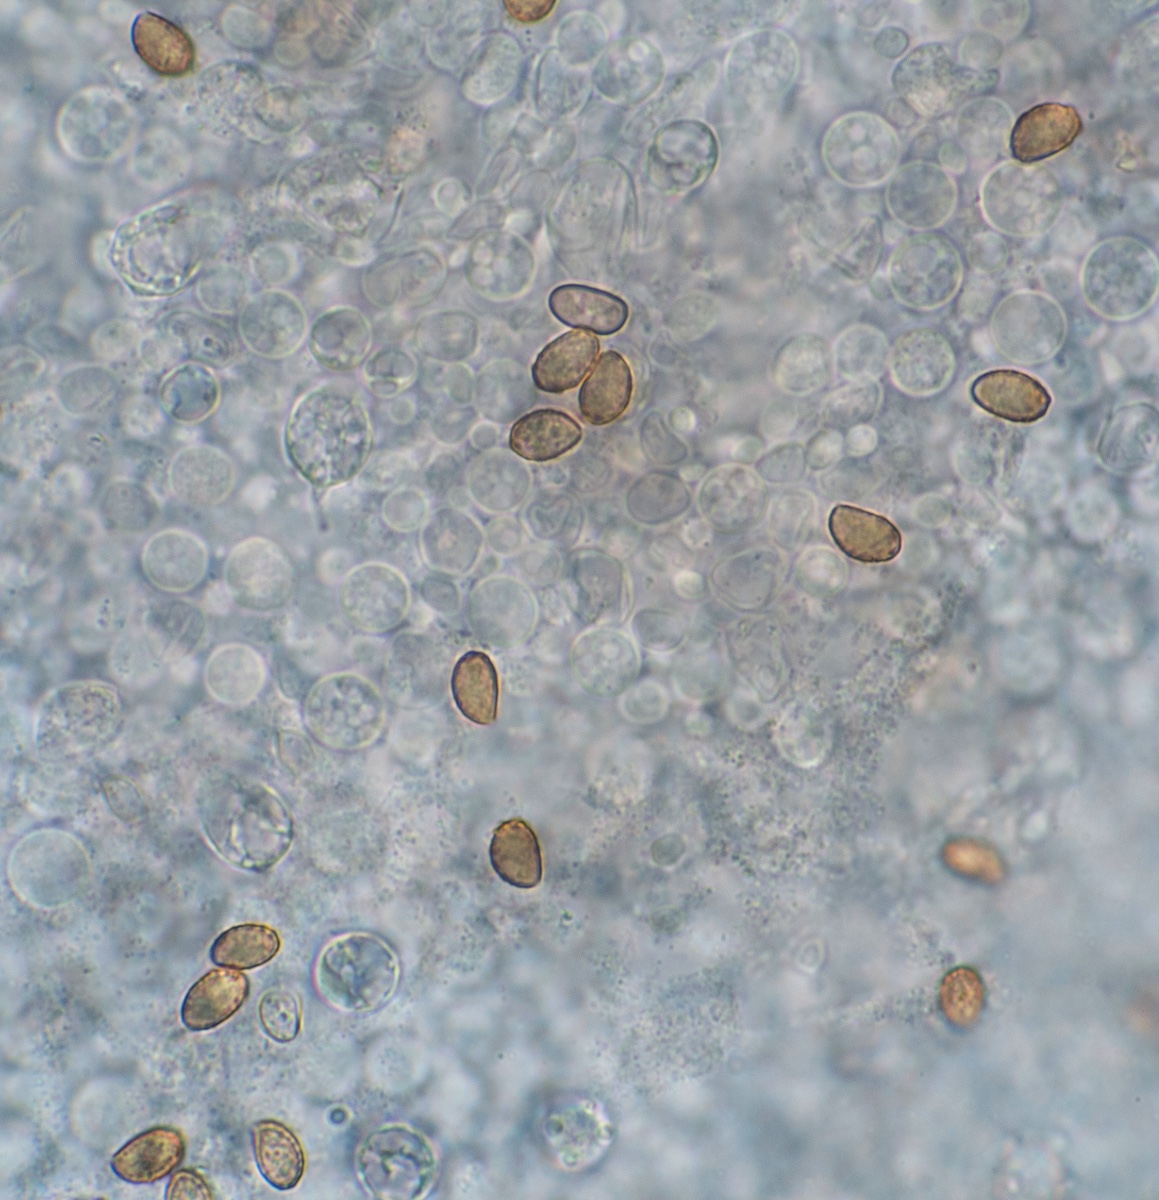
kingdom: Fungi
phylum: Basidiomycota
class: Agaricomycetes
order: Agaricales
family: Cortinariaceae
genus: Cortinarius
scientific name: Cortinarius roseocastaneus
